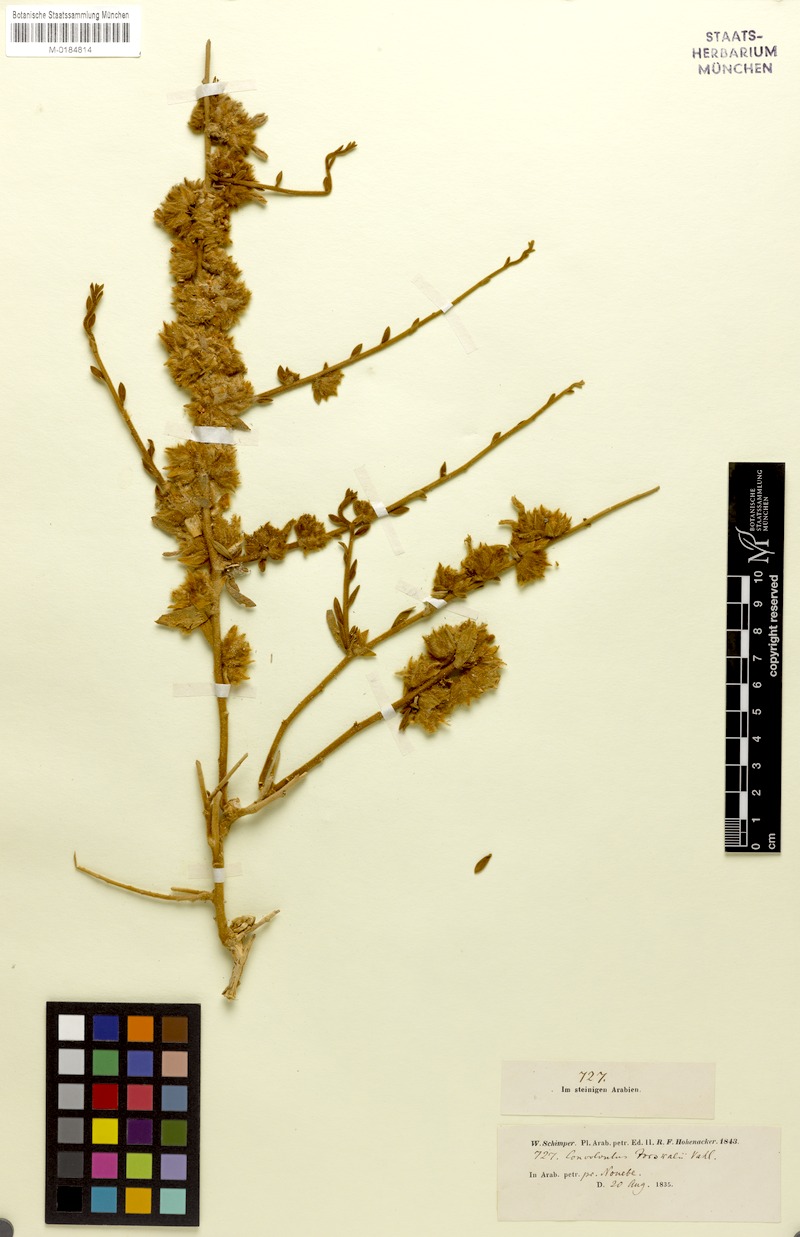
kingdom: Plantae
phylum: Tracheophyta
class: Magnoliopsida
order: Solanales
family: Convolvulaceae
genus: Argyreia
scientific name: Argyreia mollis
